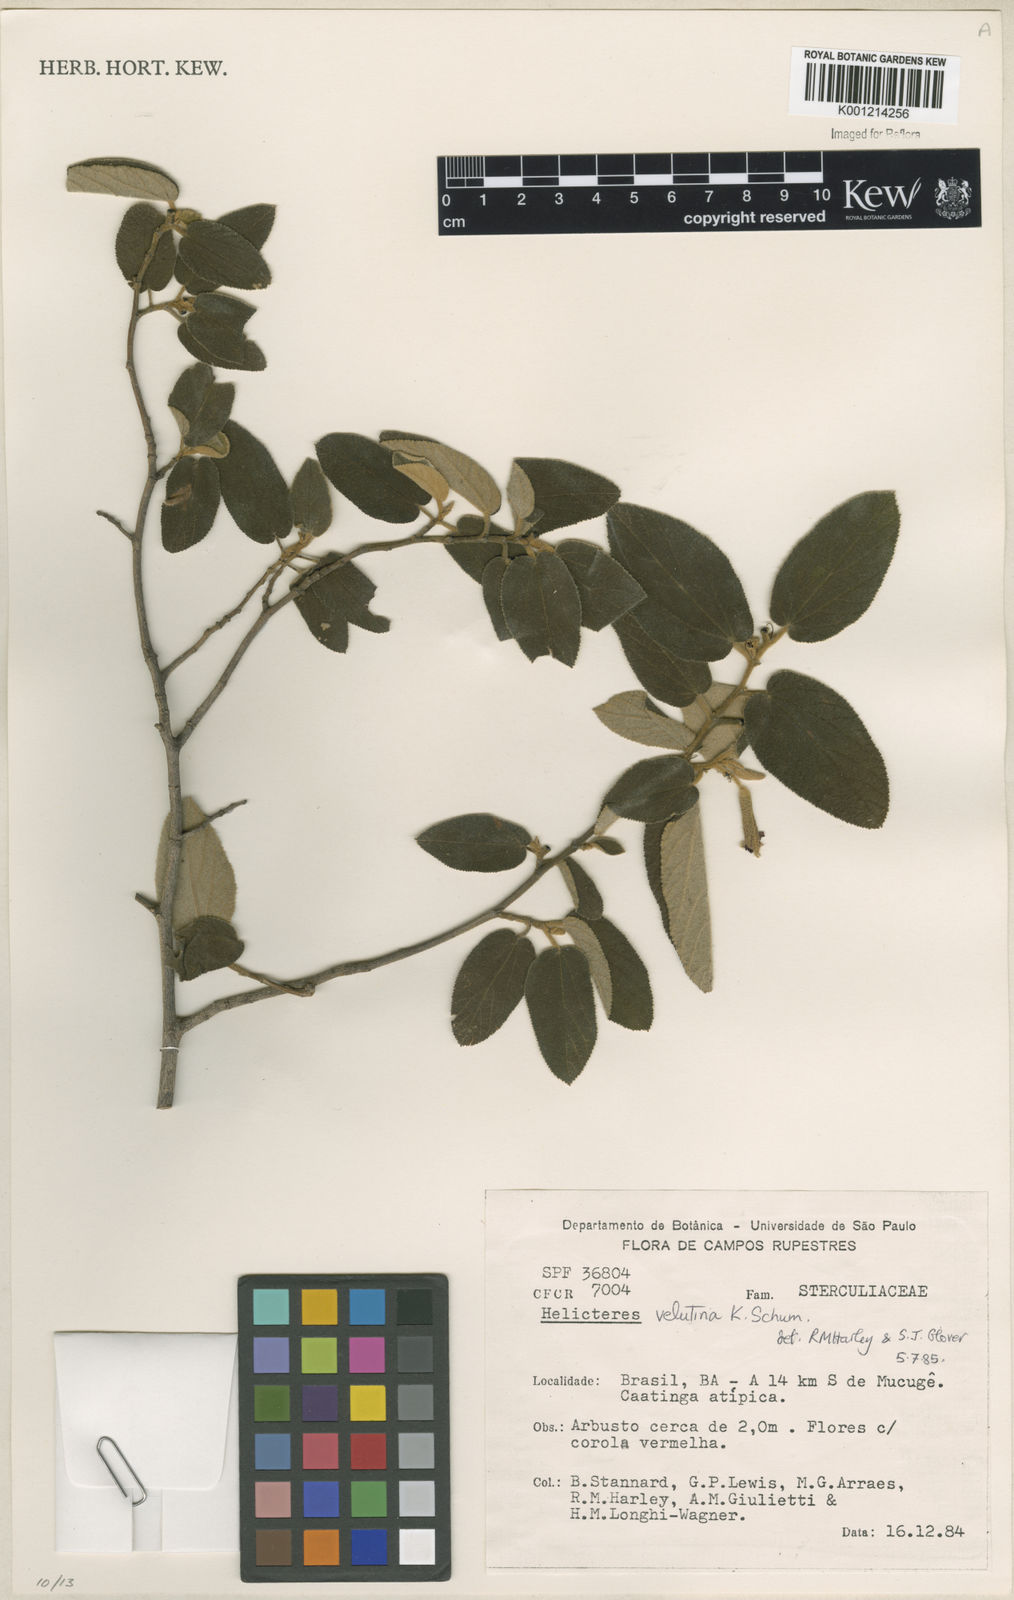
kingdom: Plantae
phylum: Tracheophyta
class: Magnoliopsida
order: Malvales
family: Malvaceae
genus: Helicteres
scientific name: Helicteres velutina
